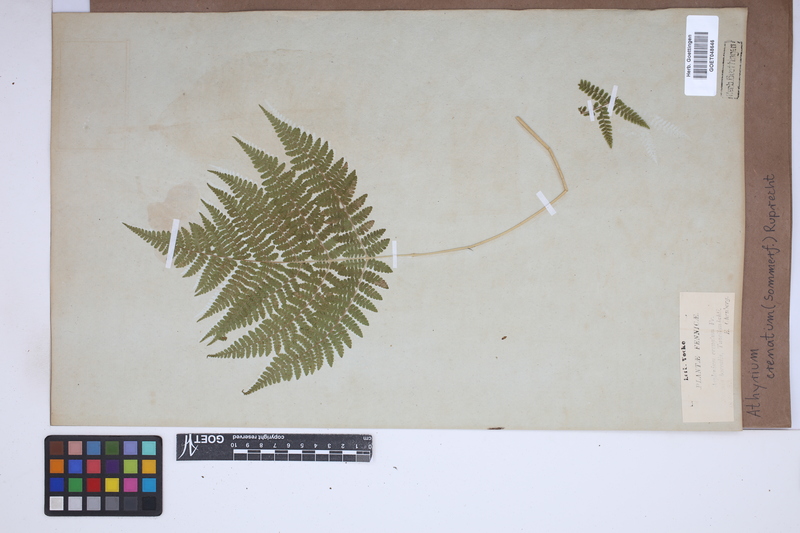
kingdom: Plantae
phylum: Tracheophyta
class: Polypodiopsida
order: Polypodiales
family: Athyriaceae
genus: Diplazium
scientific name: Diplazium sibiricum
